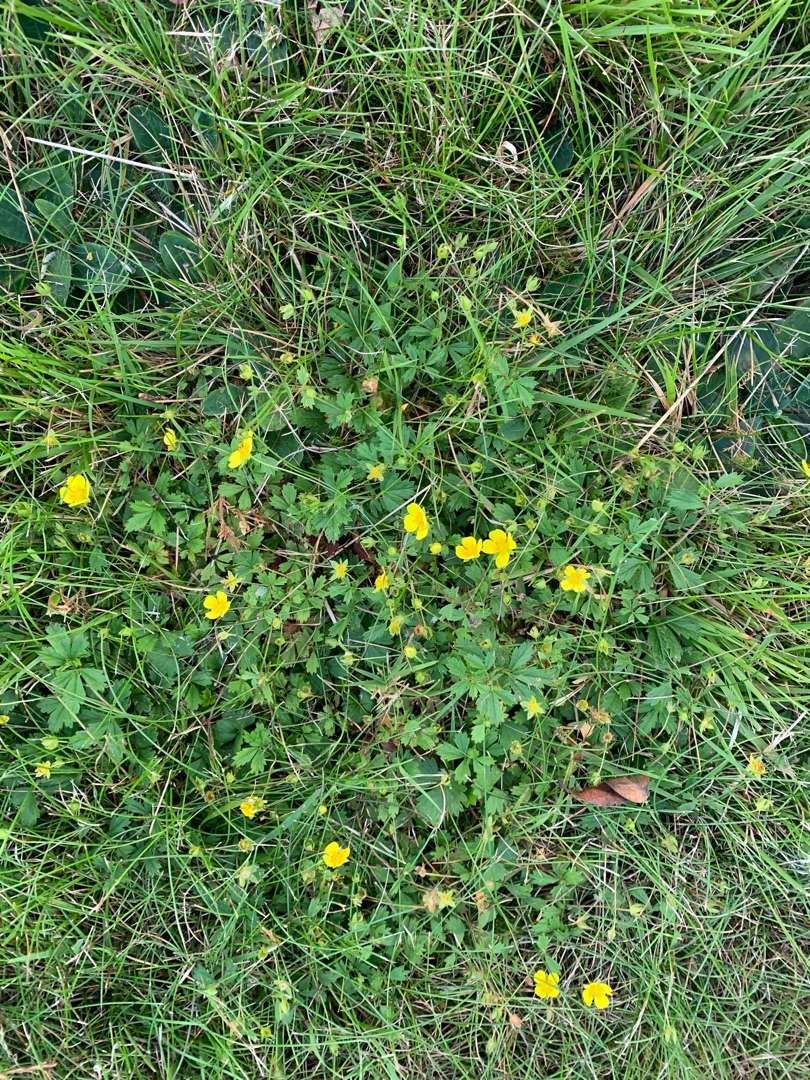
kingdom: Plantae
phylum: Tracheophyta
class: Magnoliopsida
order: Rosales
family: Rosaceae
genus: Potentilla
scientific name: Potentilla erecta
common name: Tormentil
